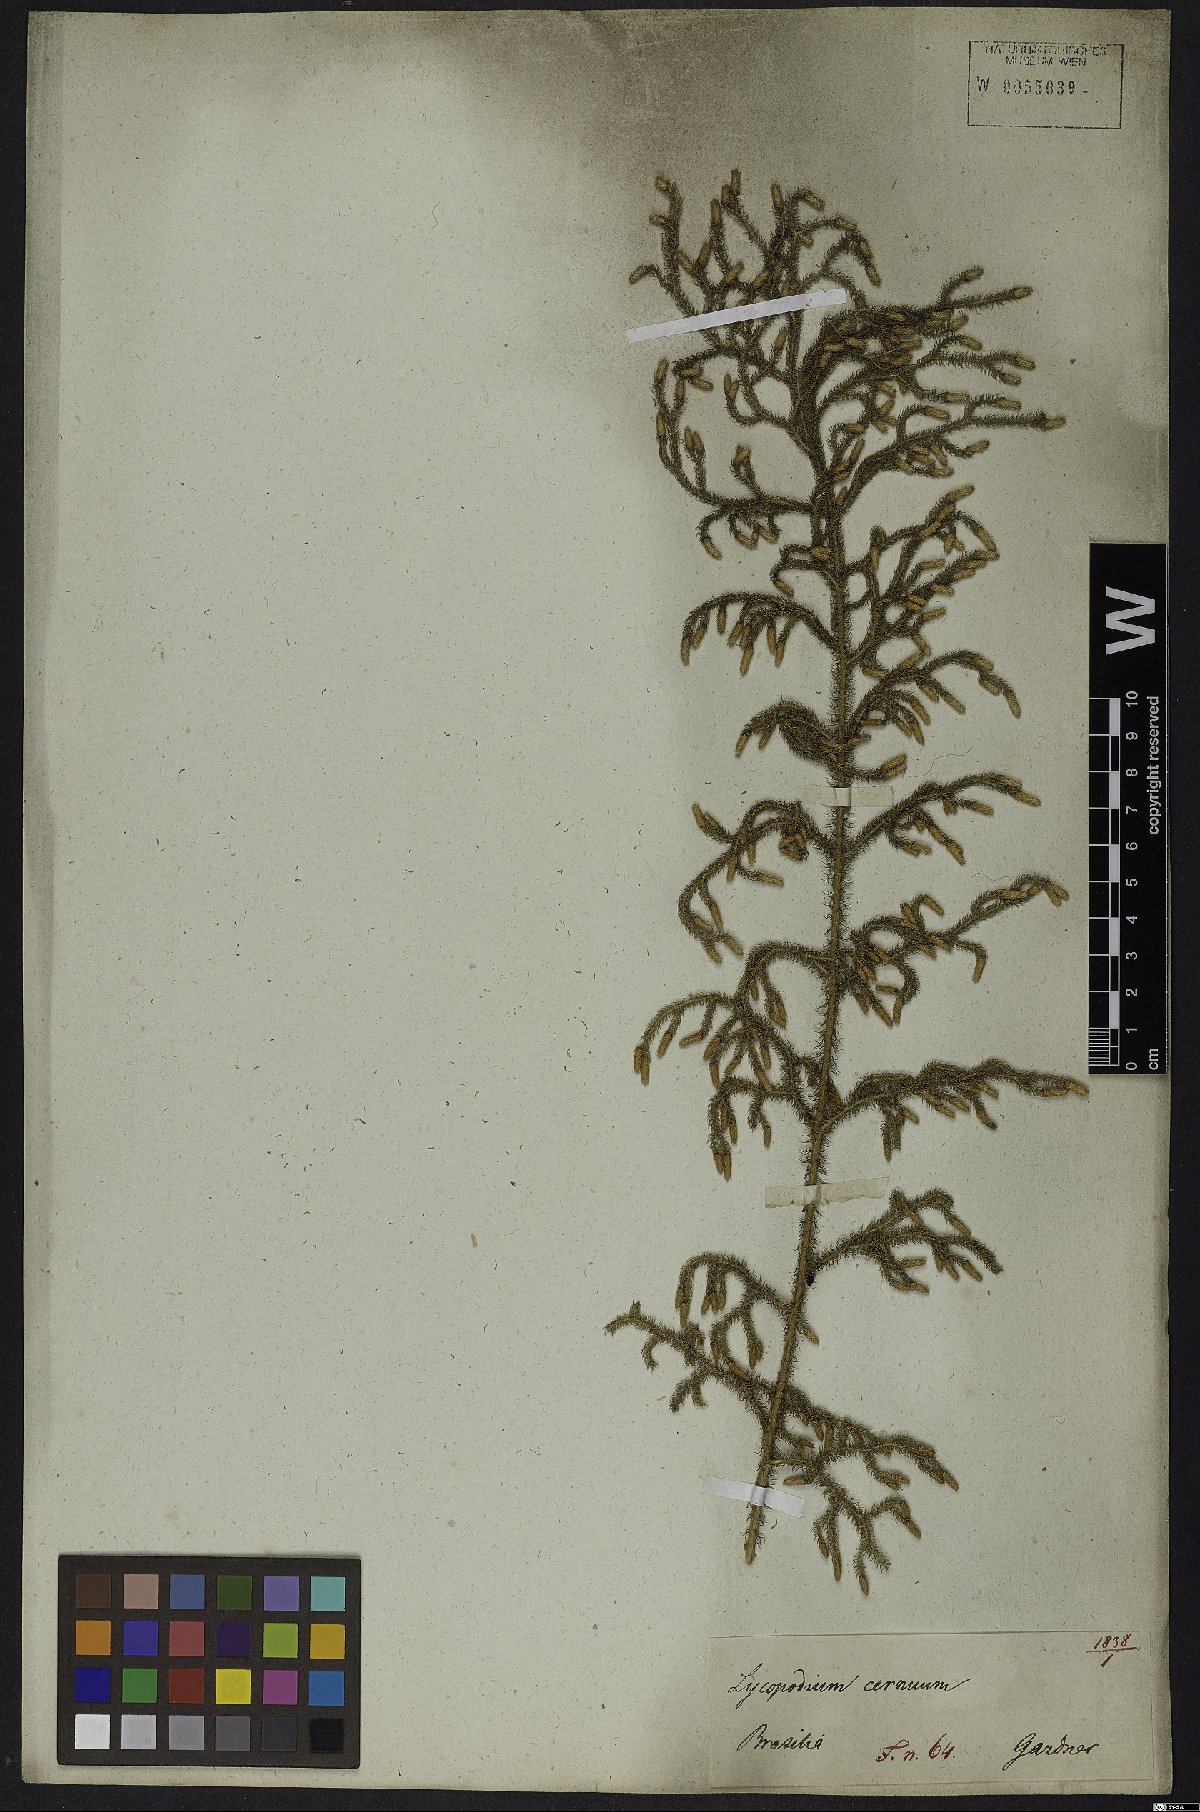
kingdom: Plantae
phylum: Tracheophyta
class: Lycopodiopsida
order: Lycopodiales
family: Lycopodiaceae
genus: Palhinhaea
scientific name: Palhinhaea cernua
